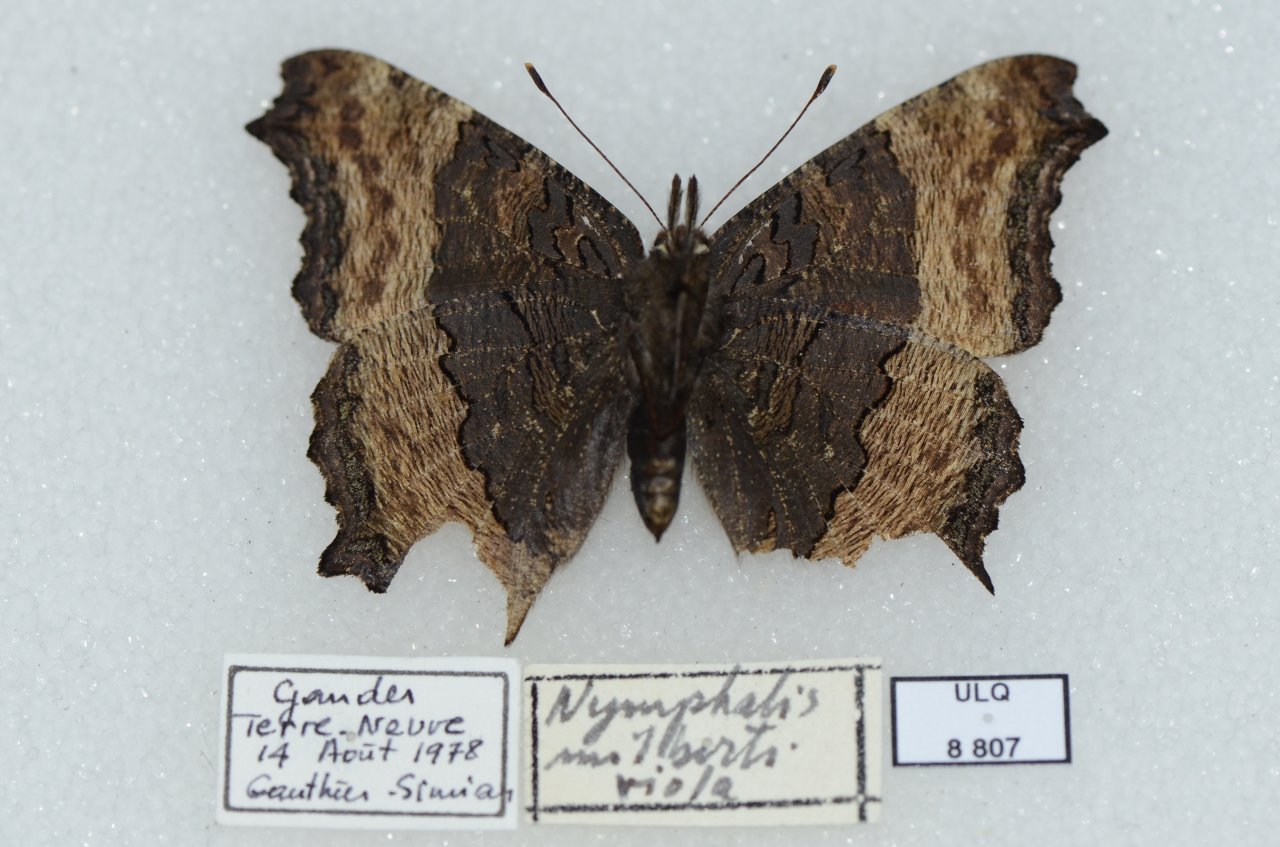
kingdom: Animalia
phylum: Arthropoda
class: Insecta
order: Lepidoptera
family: Nymphalidae
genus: Aglais
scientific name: Aglais milberti
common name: Milbert's Tortoiseshell
